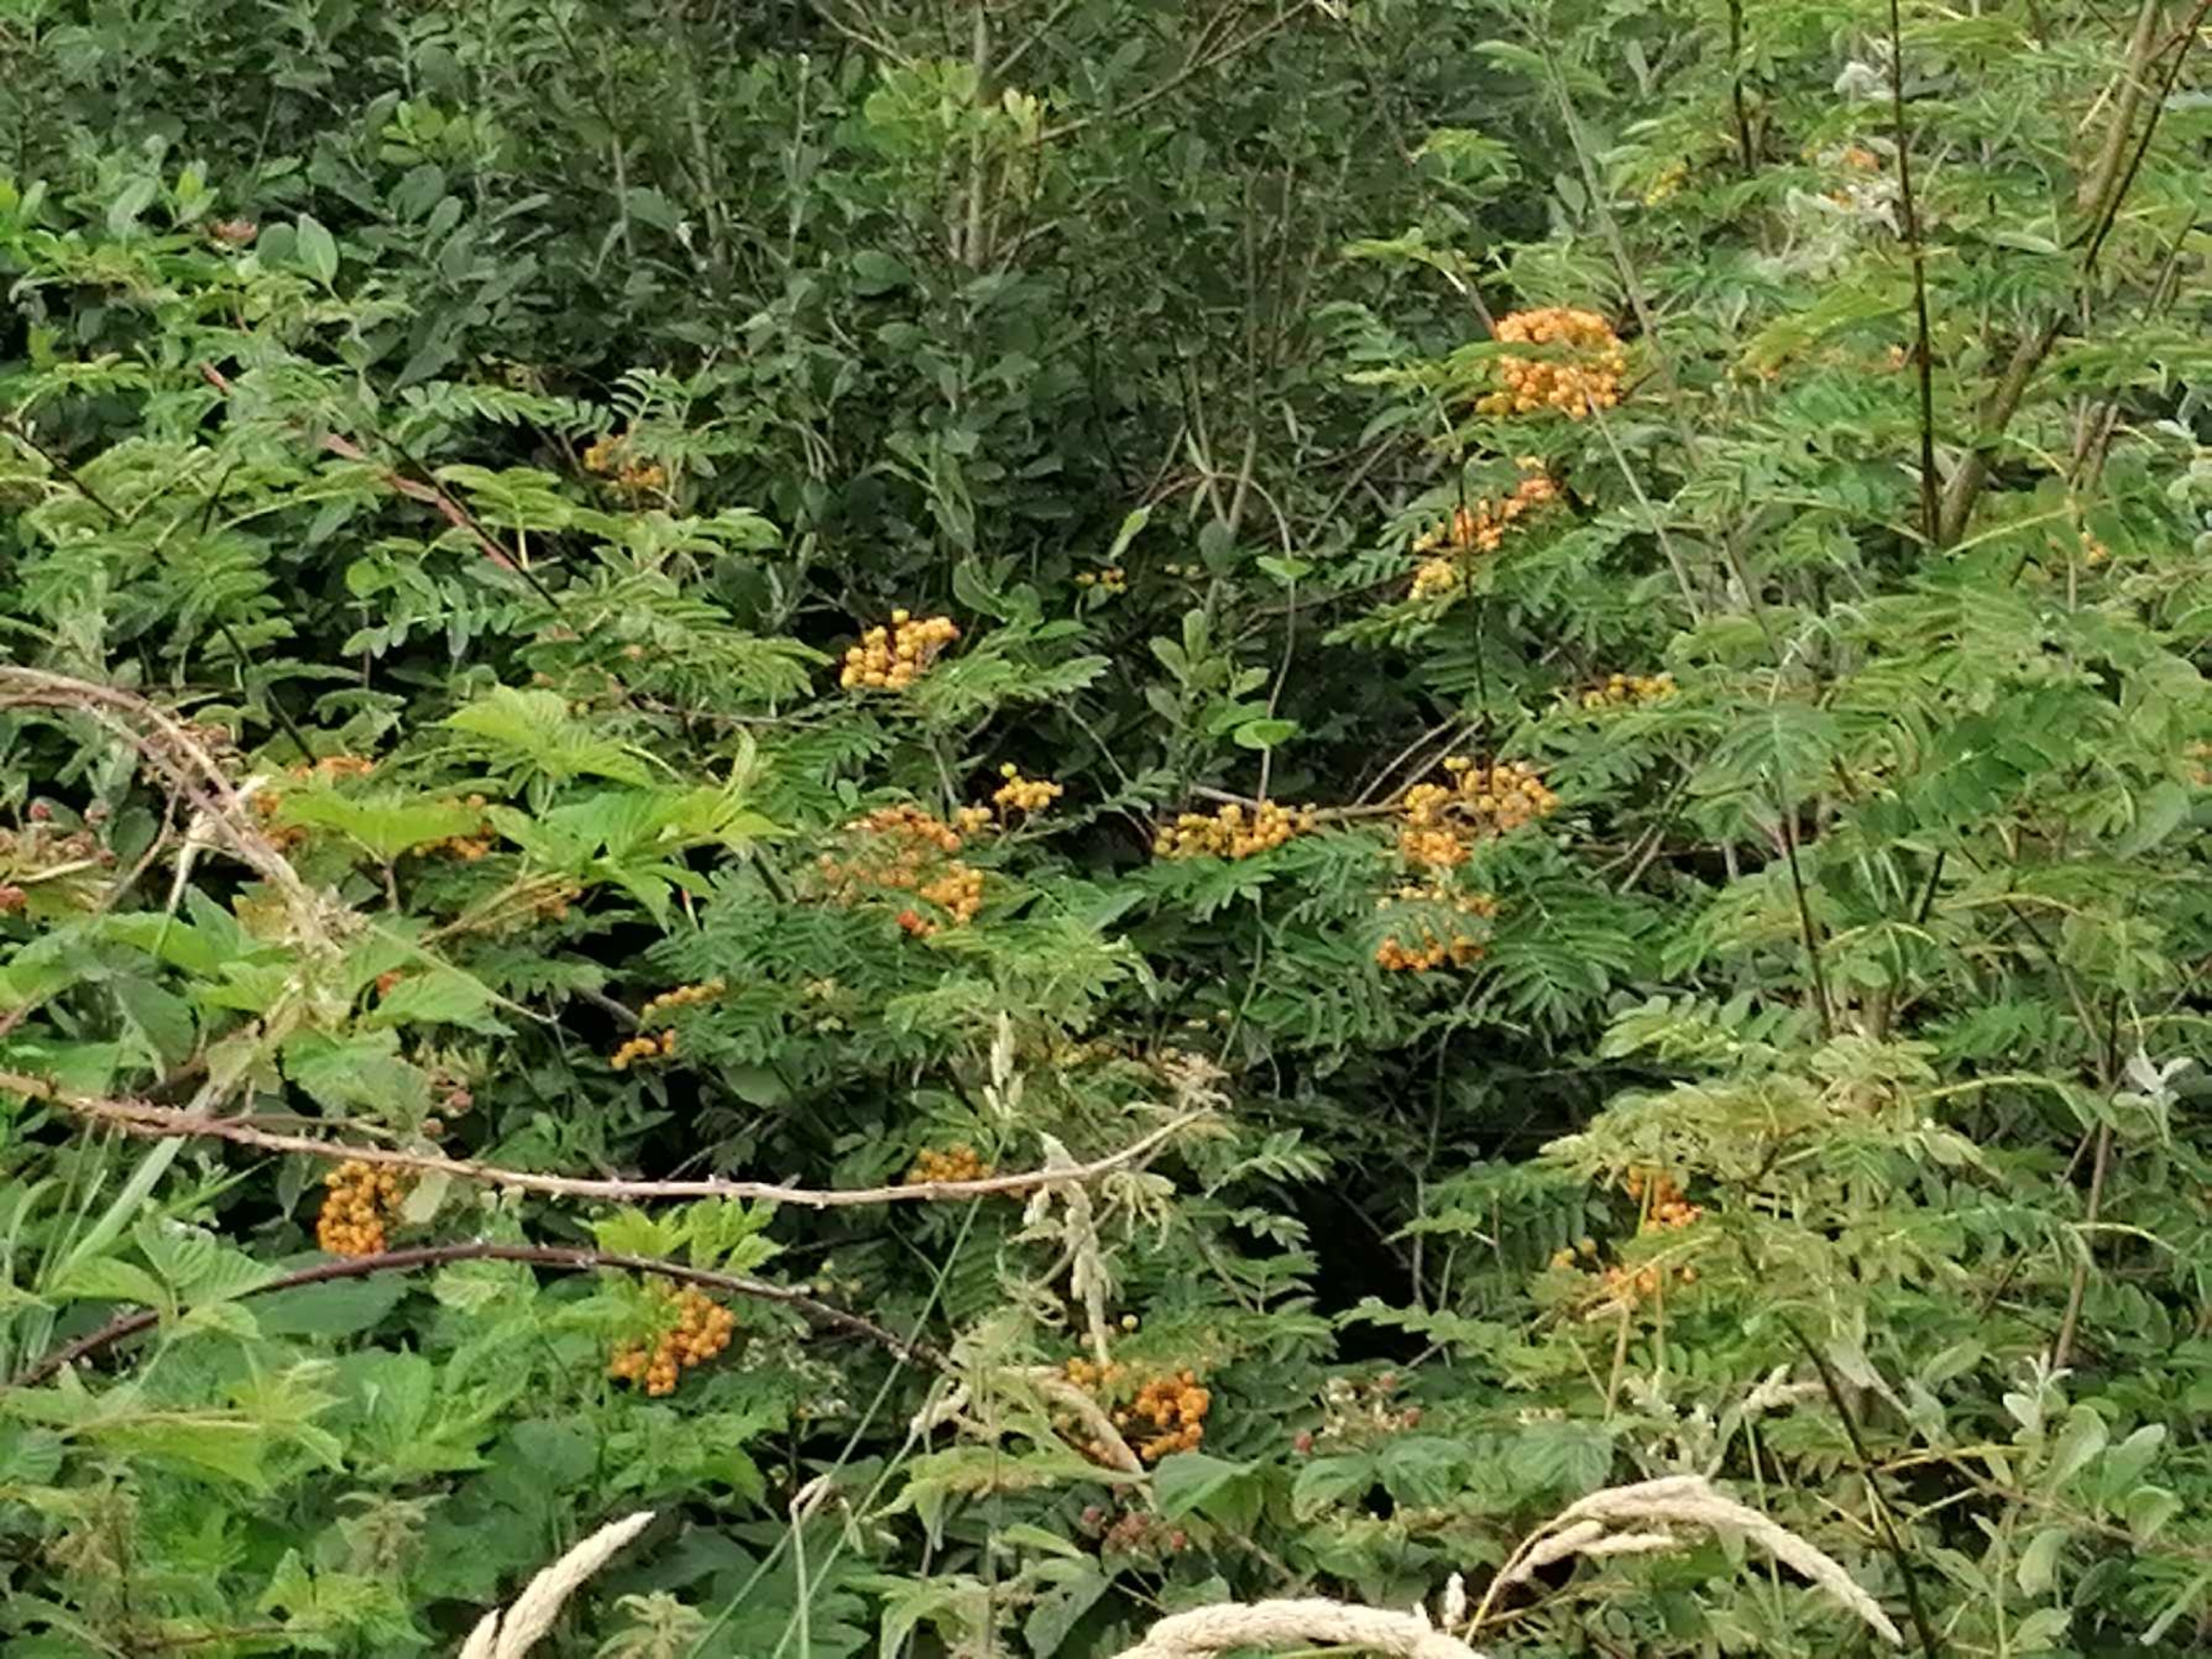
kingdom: Plantae
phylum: Tracheophyta
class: Magnoliopsida
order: Rosales
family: Rosaceae
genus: Sorbus
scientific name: Sorbus aucuparia
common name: Almindelig røn
